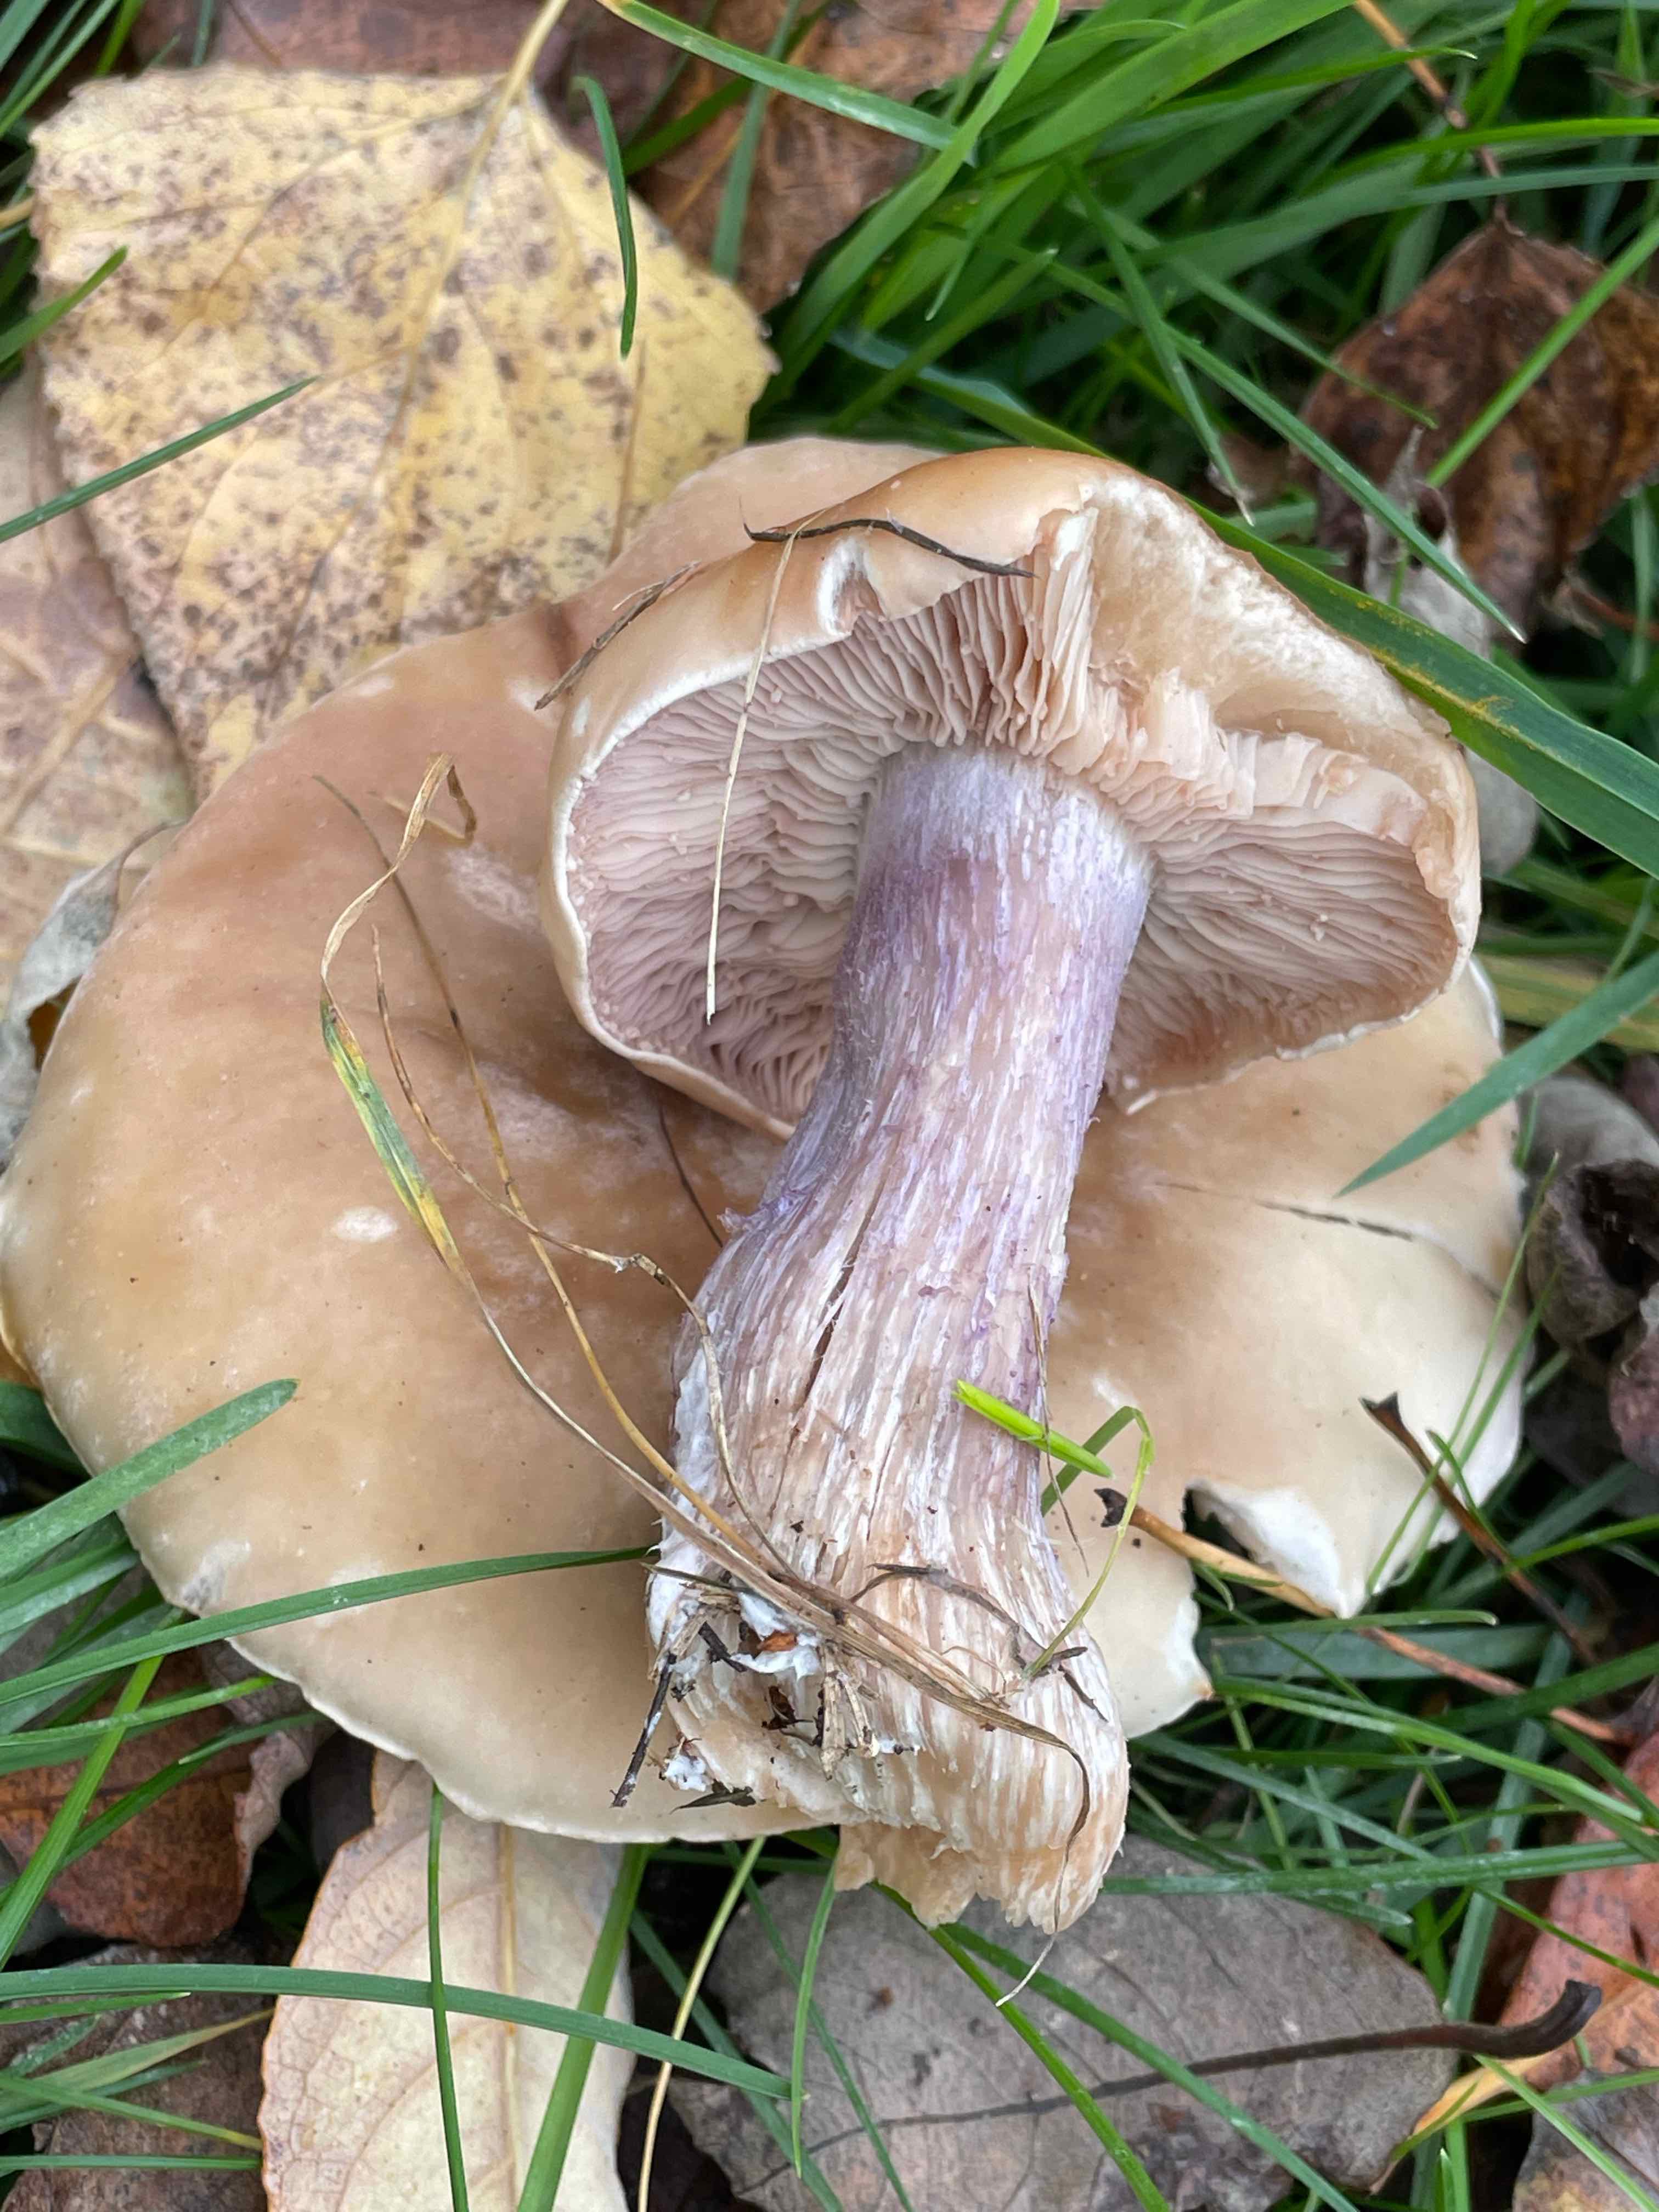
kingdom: Fungi
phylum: Basidiomycota
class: Agaricomycetes
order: Agaricales
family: Tricholomataceae
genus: Lepista
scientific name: Lepista personata
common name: bleg hekseringshat
